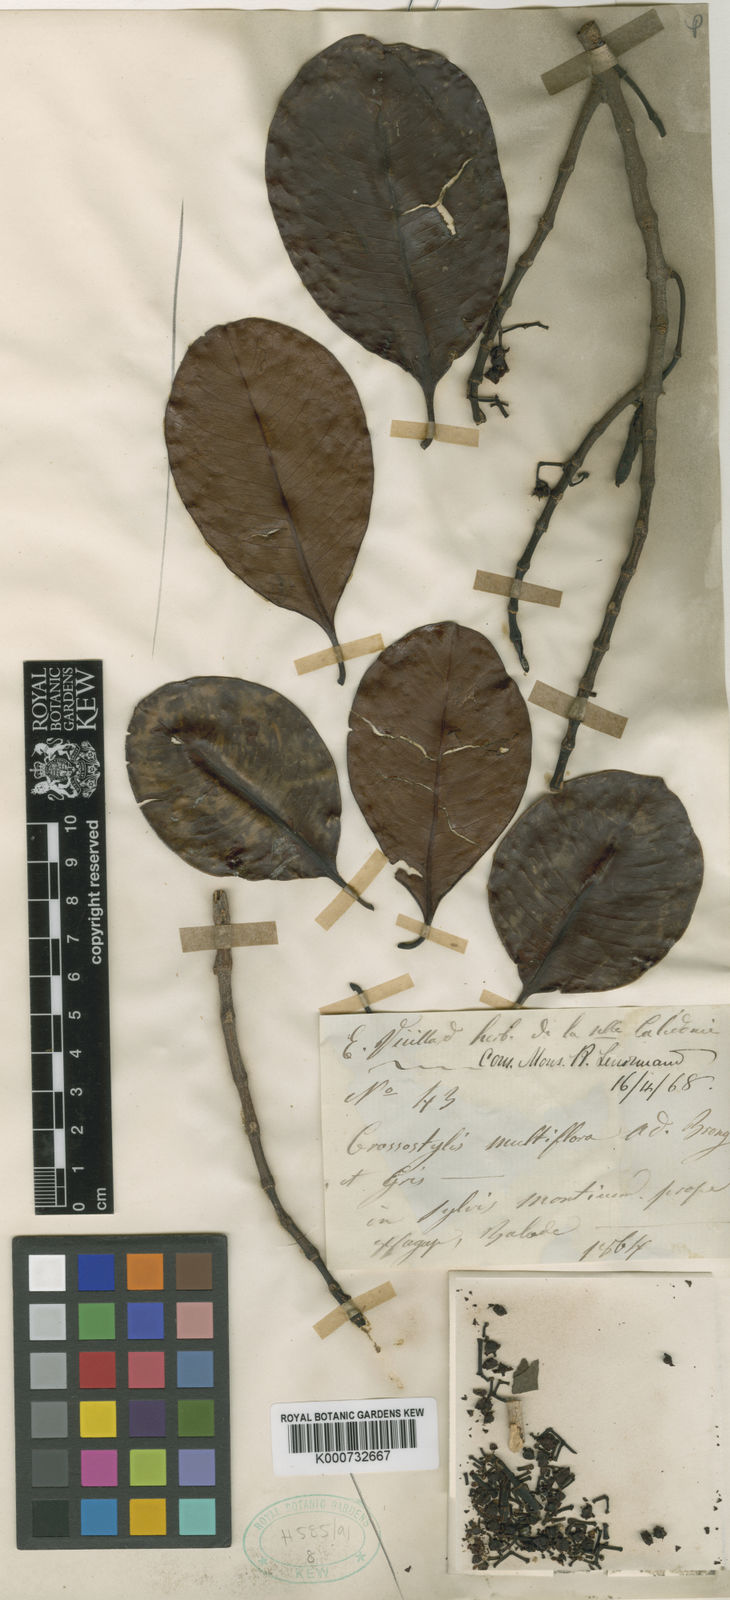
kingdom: Plantae
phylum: Tracheophyta
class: Magnoliopsida
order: Malpighiales
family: Rhizophoraceae
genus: Crossostylis
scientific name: Crossostylis
